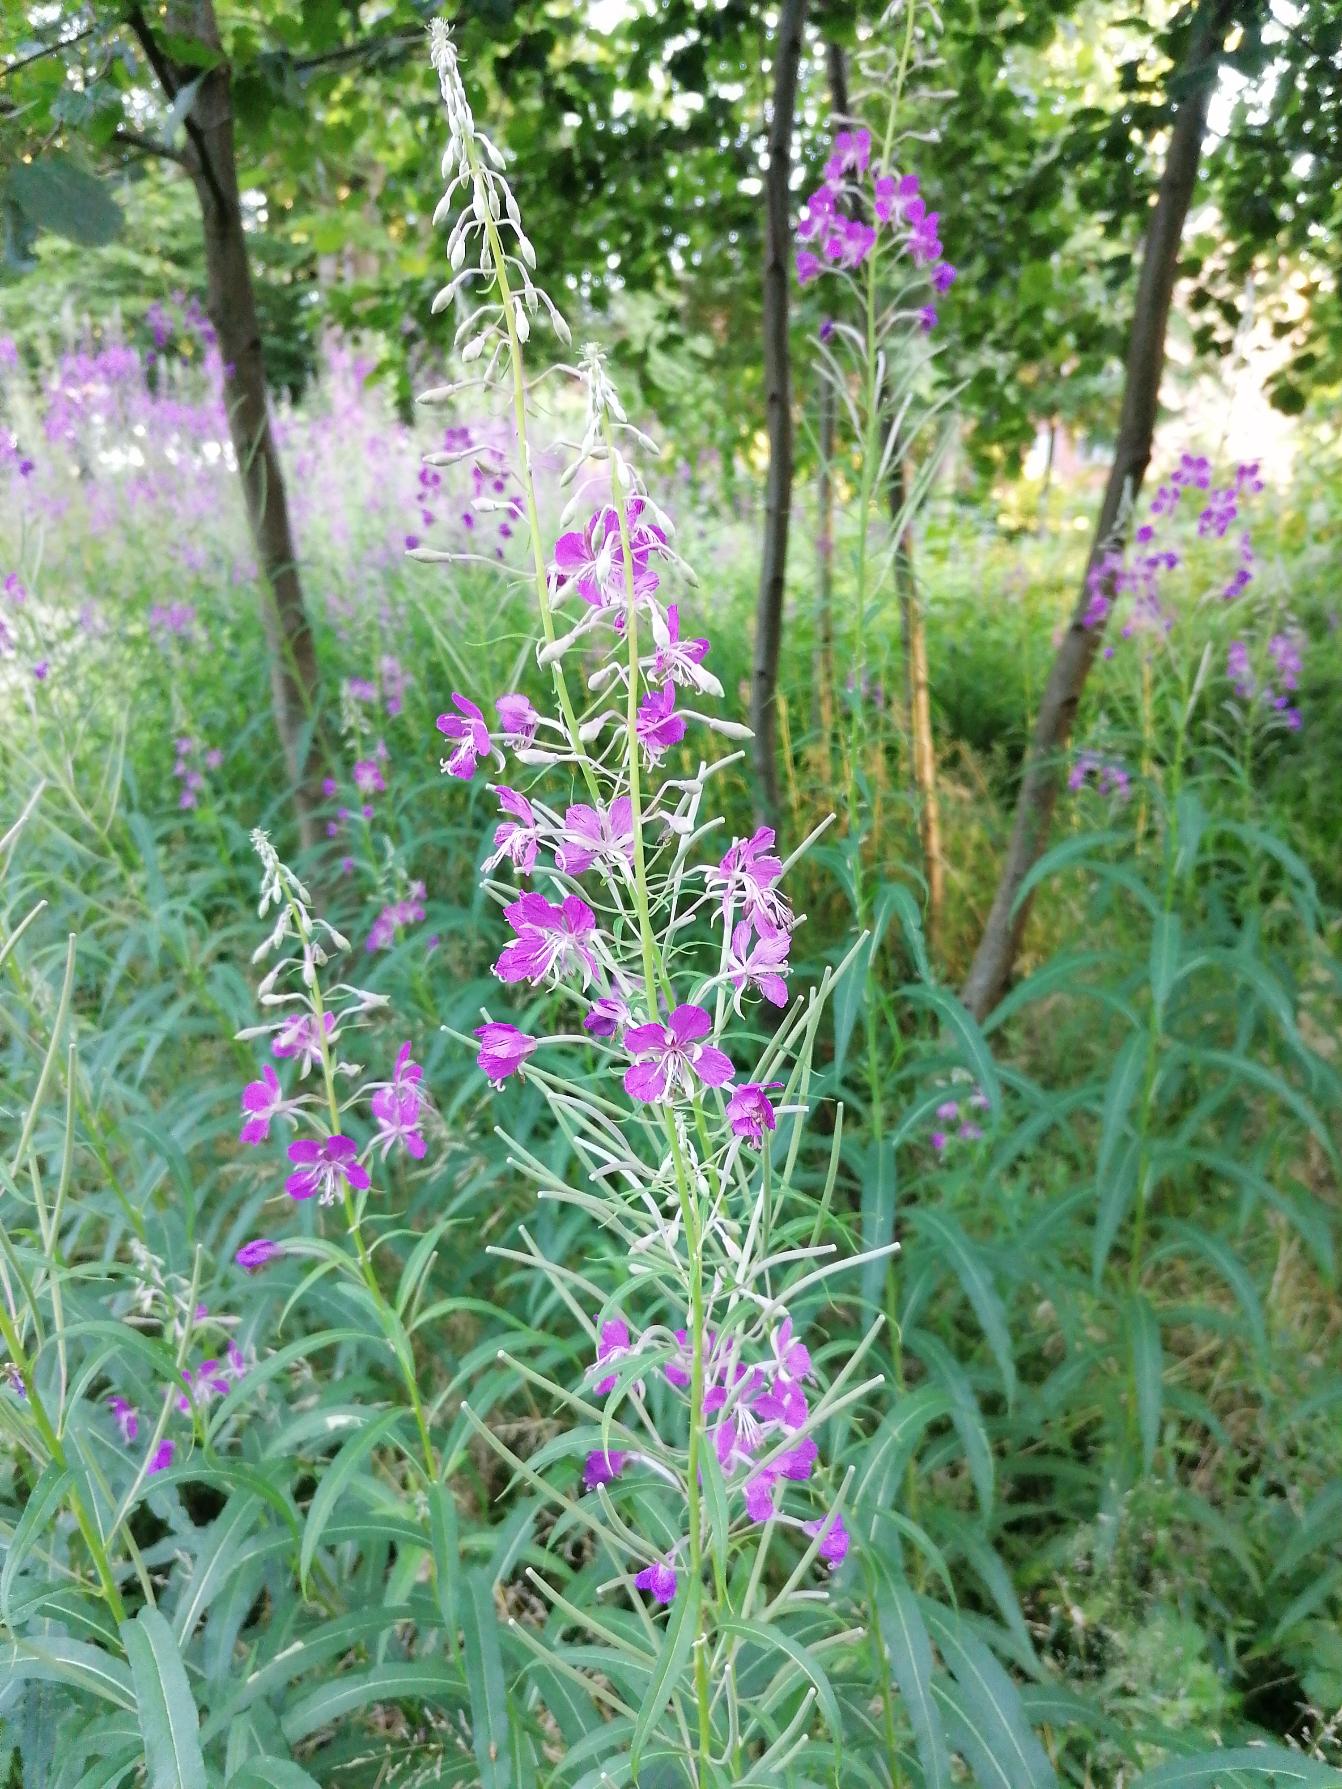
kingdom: Plantae
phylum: Tracheophyta
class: Magnoliopsida
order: Myrtales
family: Onagraceae
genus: Chamaenerion
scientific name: Chamaenerion angustifolium
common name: Gederams
